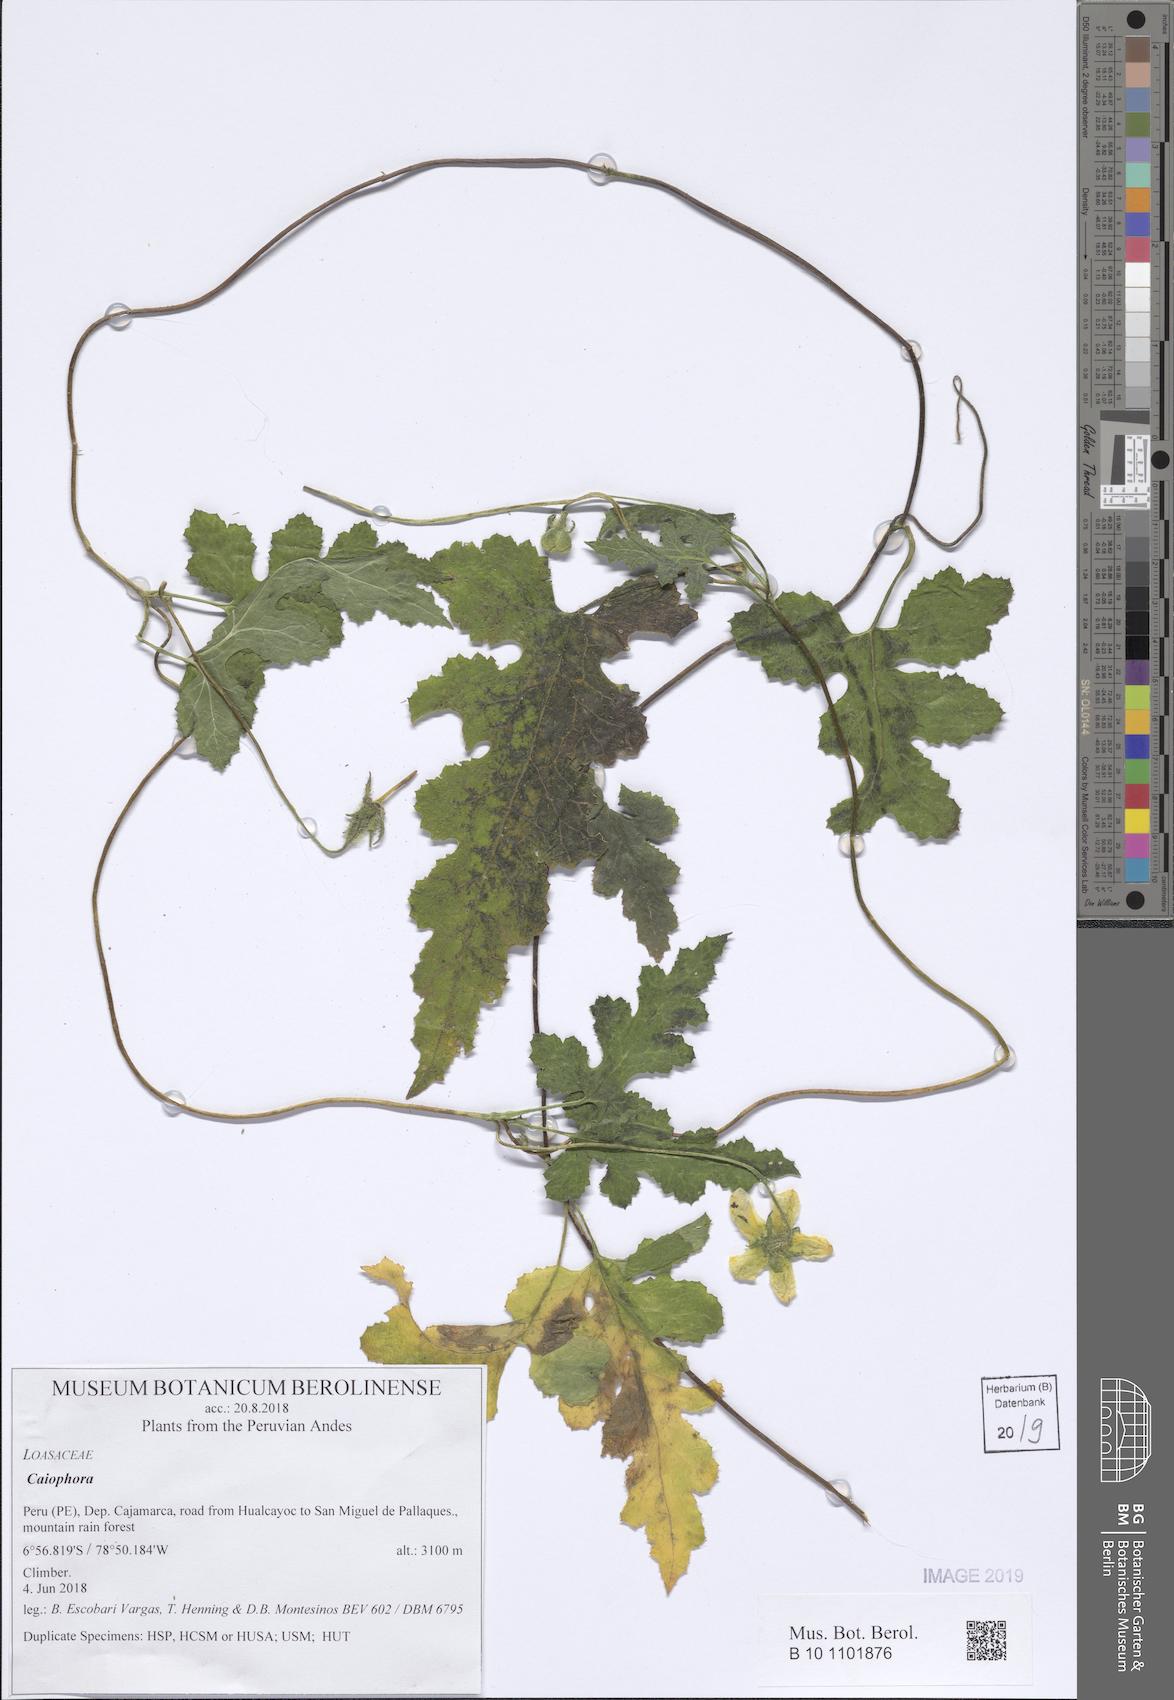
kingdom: Plantae
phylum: Tracheophyta
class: Magnoliopsida
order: Cornales
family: Loasaceae
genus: Caiophora
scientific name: Caiophora
